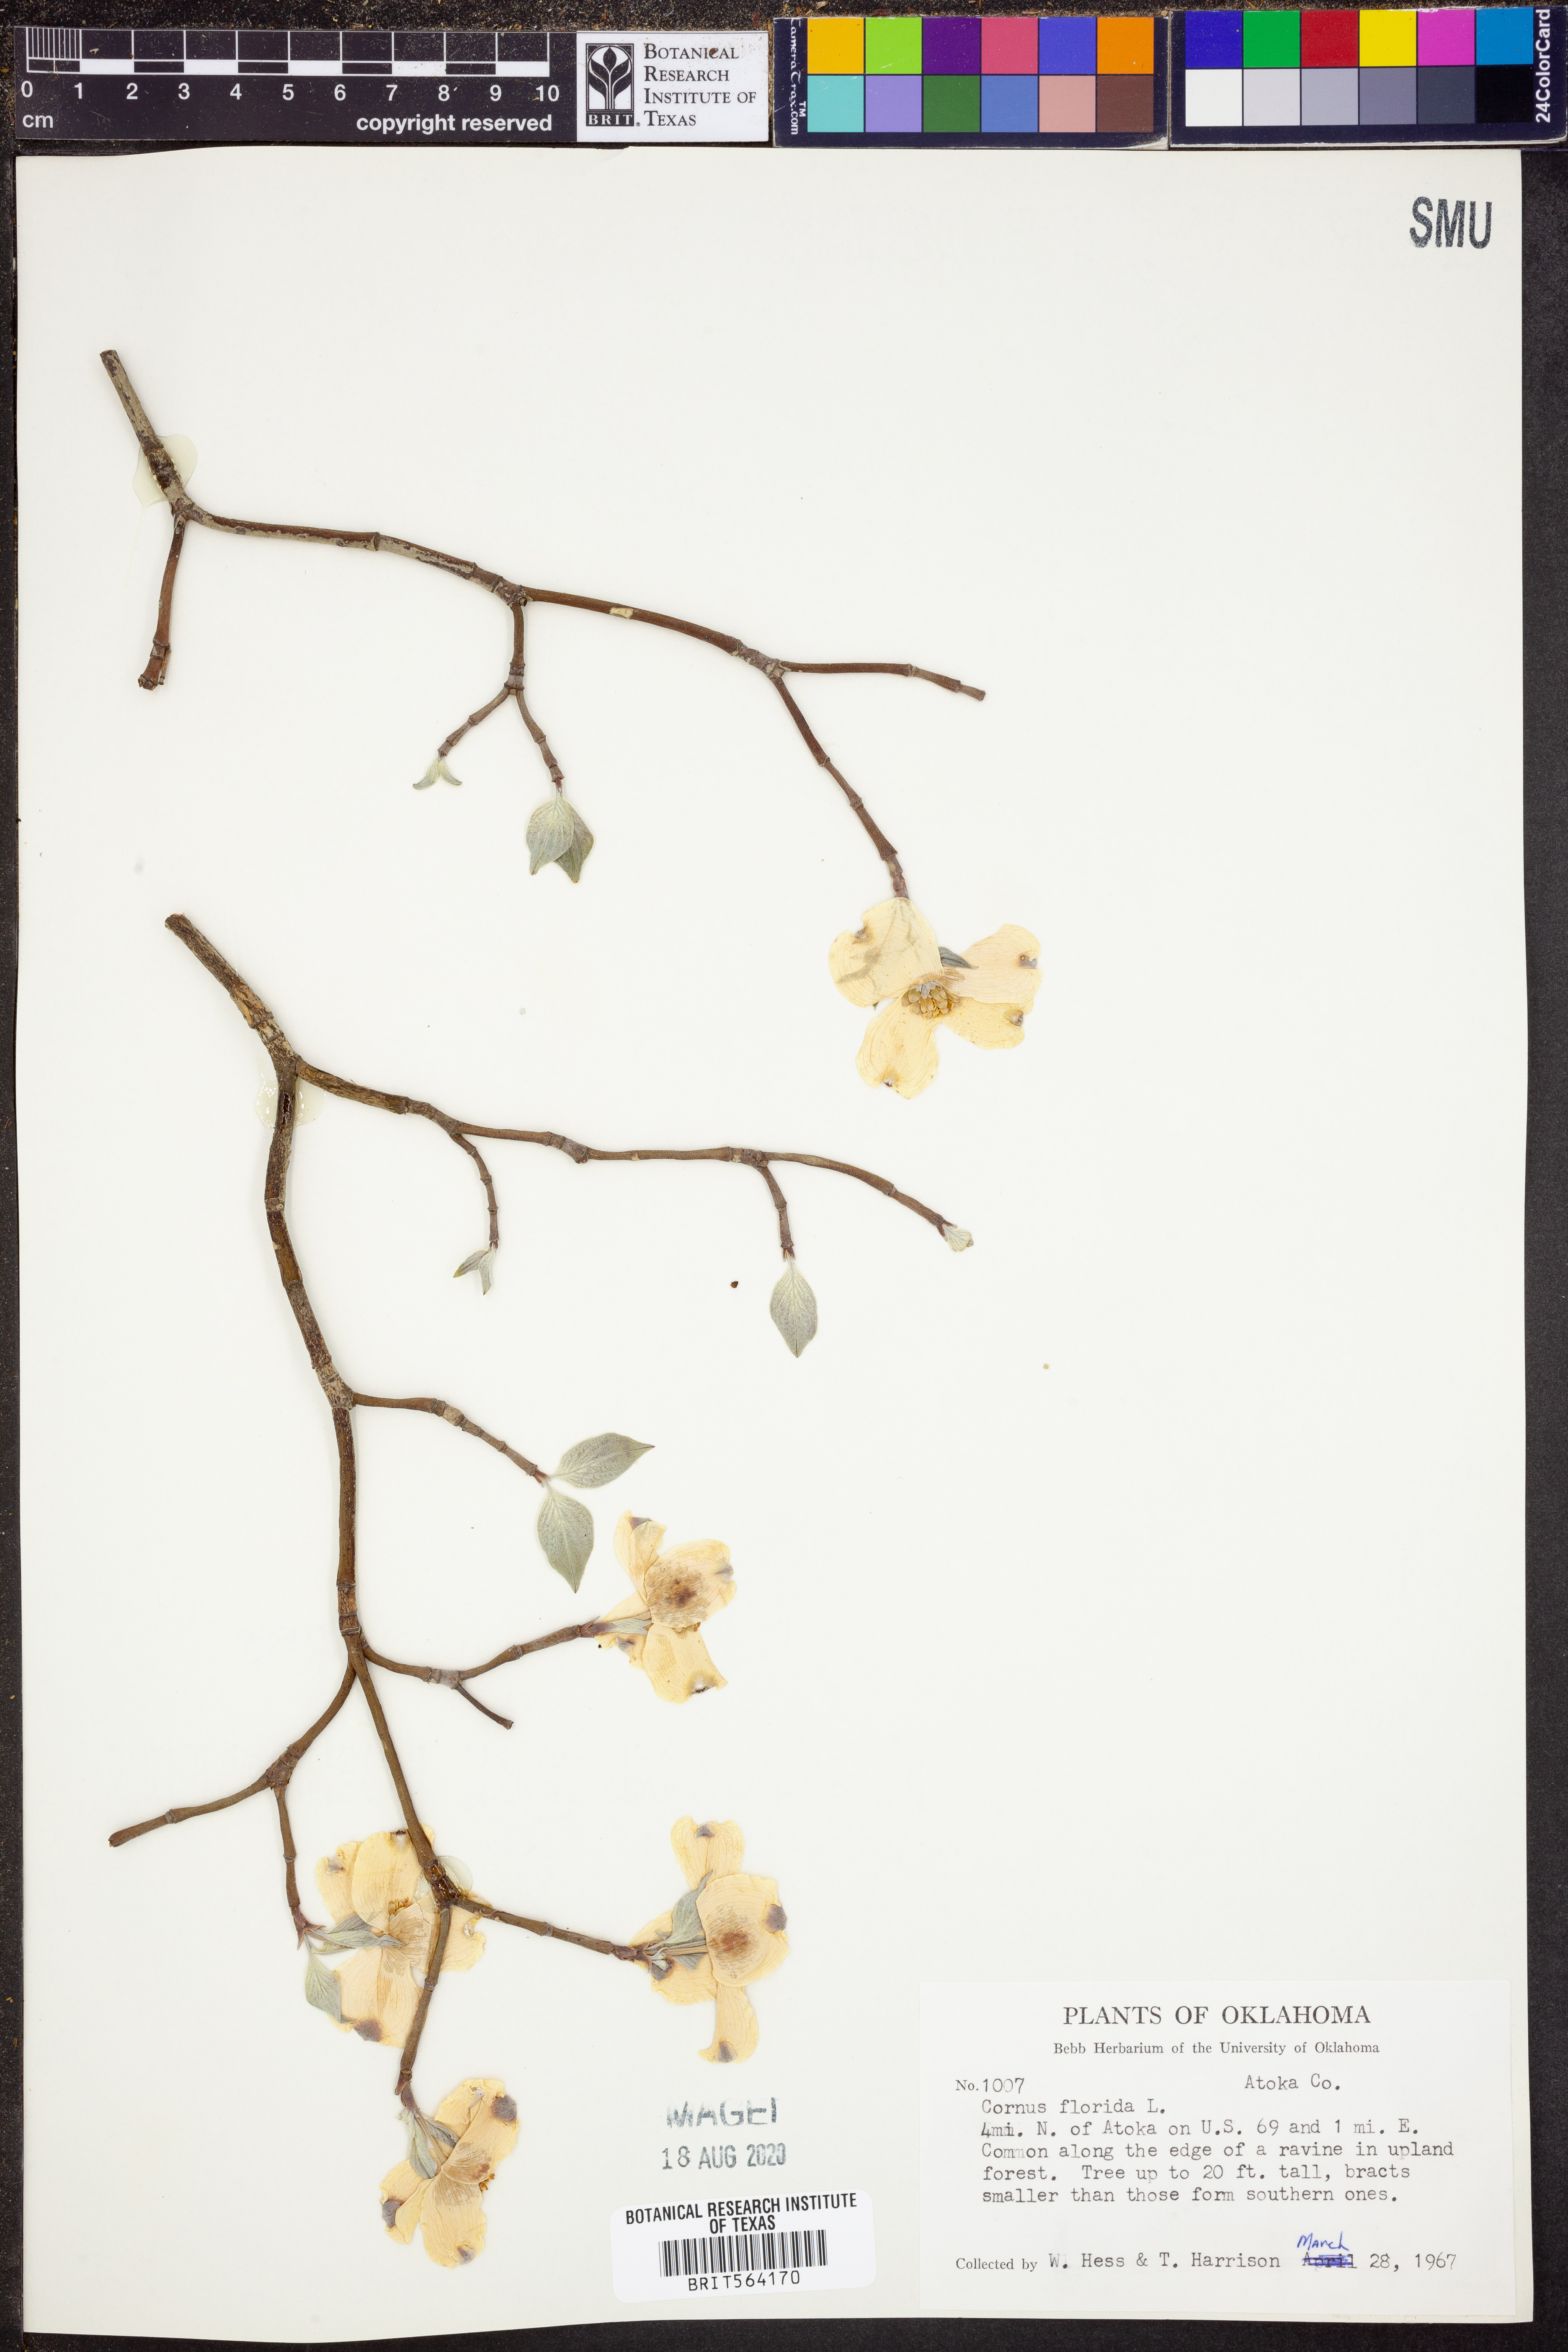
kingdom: Plantae
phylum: Tracheophyta
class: Magnoliopsida
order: Cornales
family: Cornaceae
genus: Cornus
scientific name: Cornus florida
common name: Flowering dogwood
